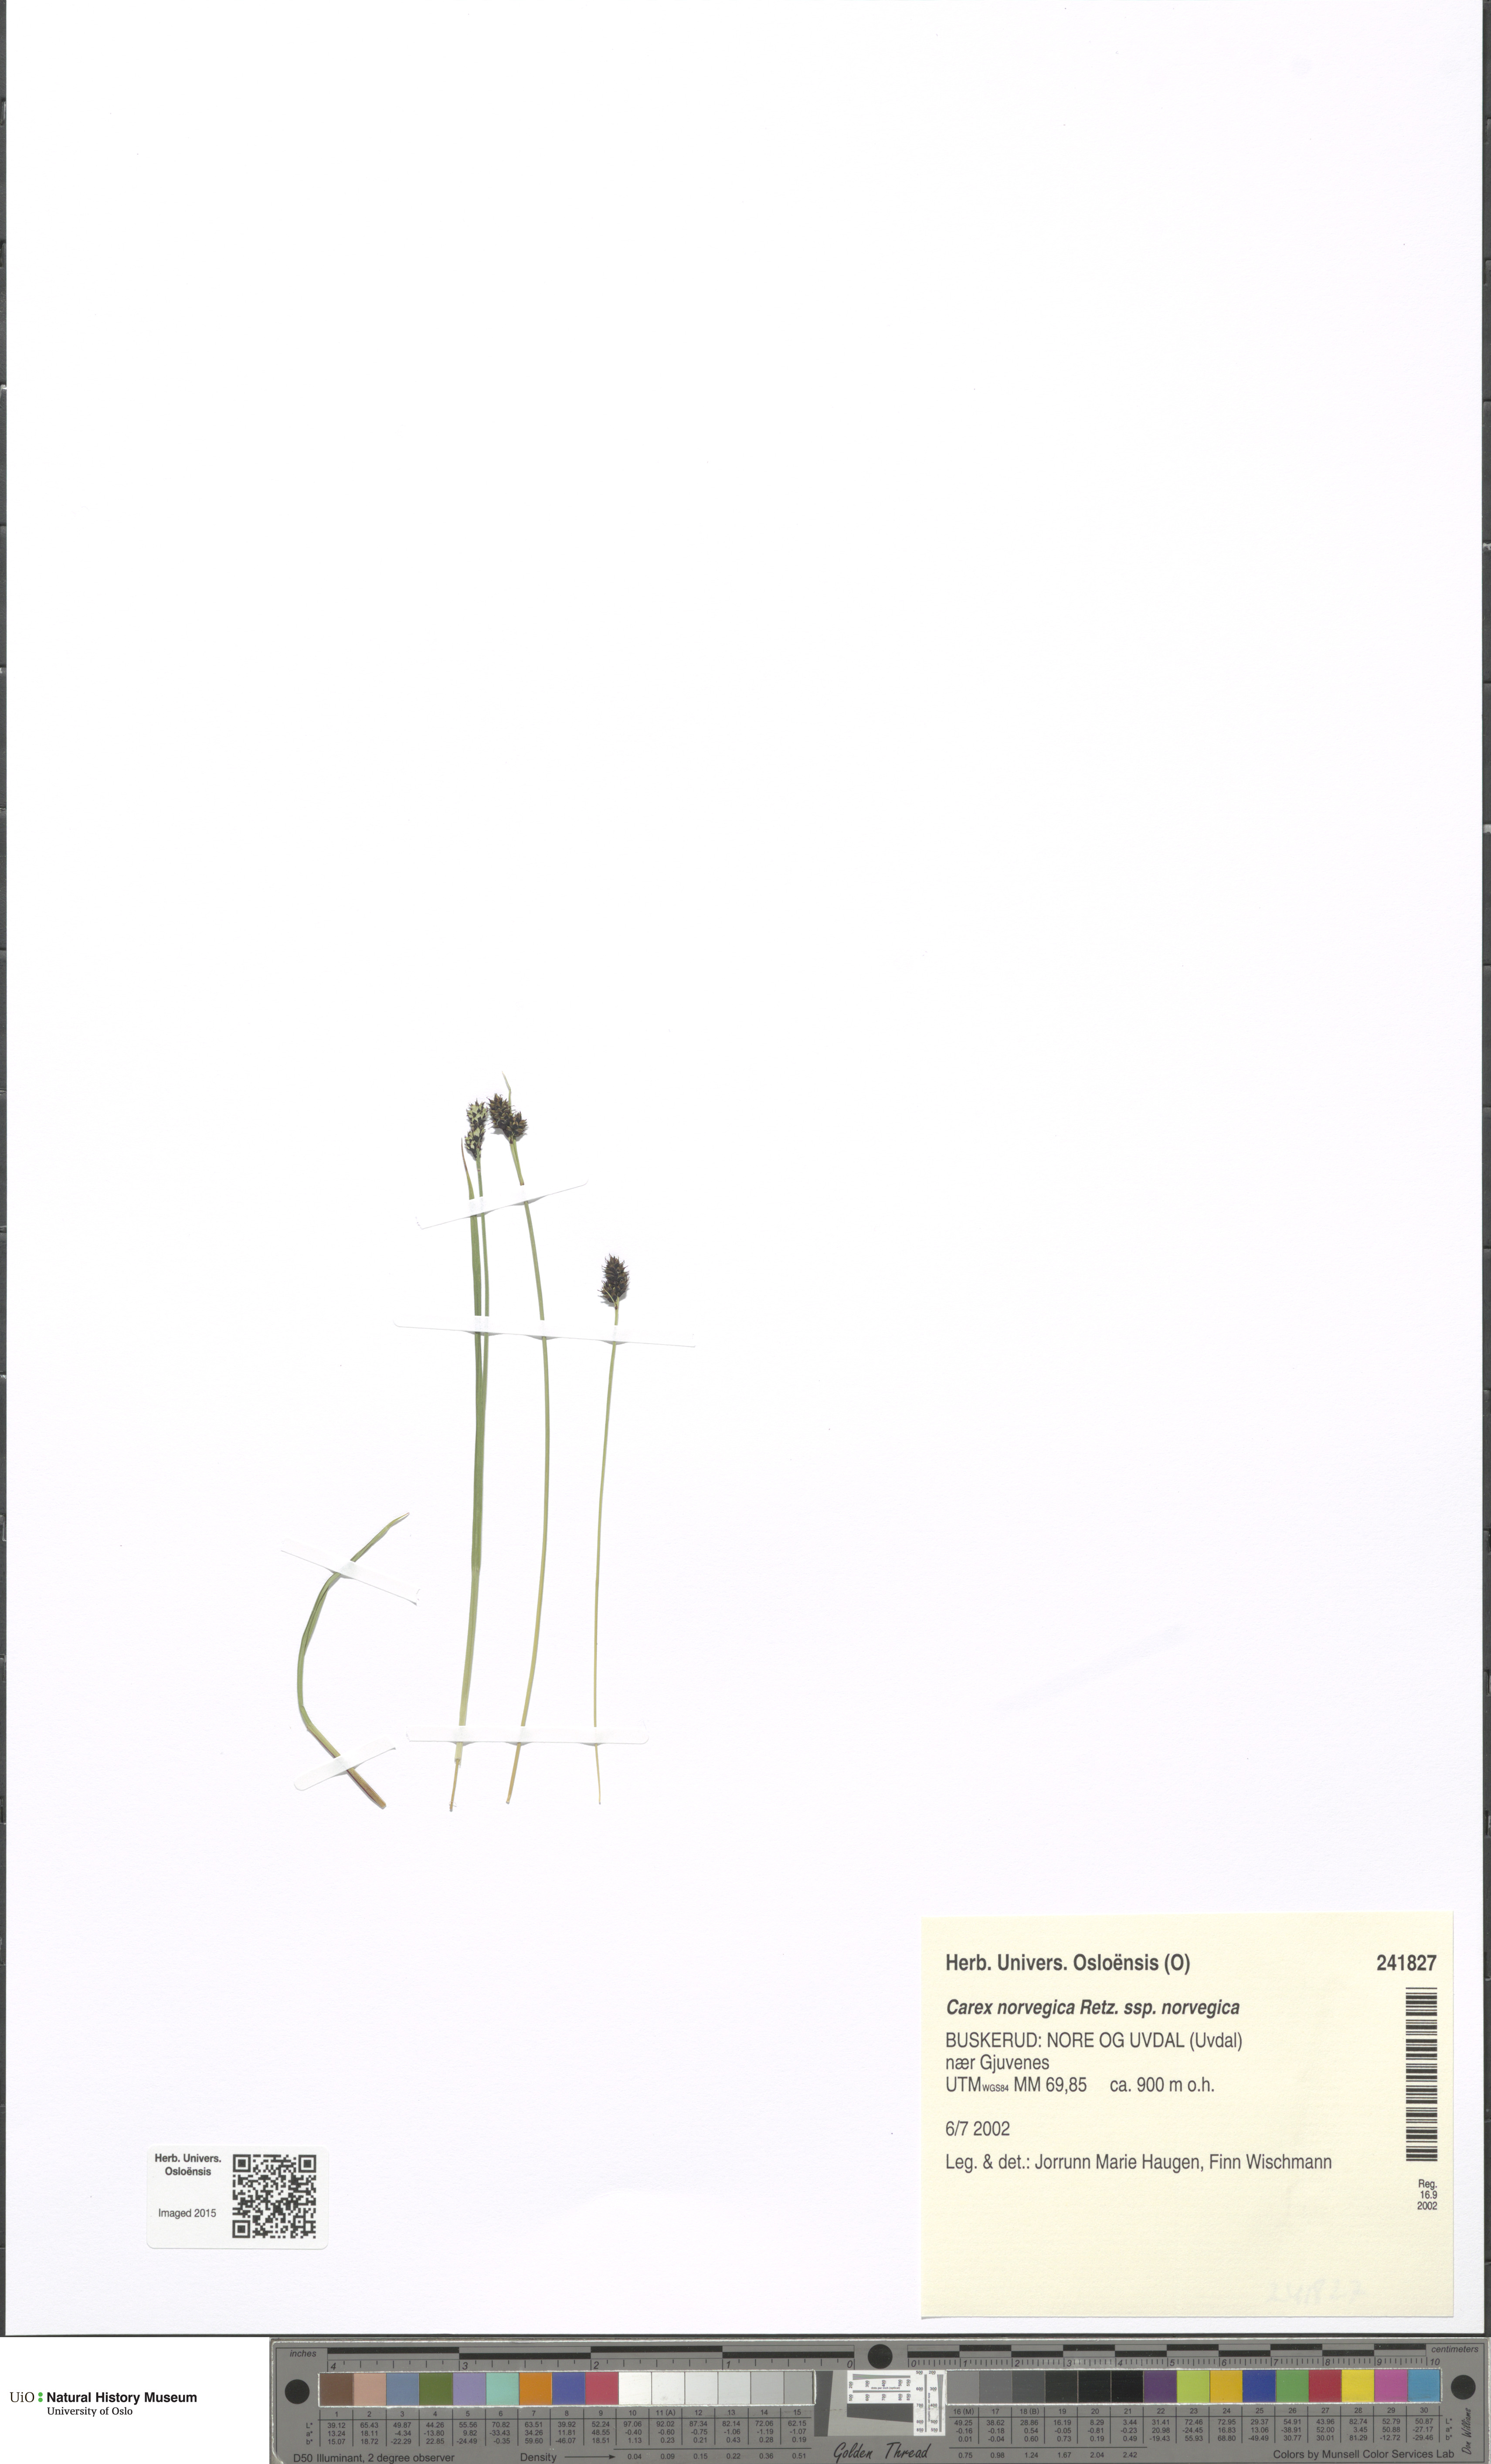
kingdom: Plantae
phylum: Tracheophyta
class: Liliopsida
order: Poales
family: Cyperaceae
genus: Carex
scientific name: Carex norvegica
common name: Close-headed alpine-sedge
